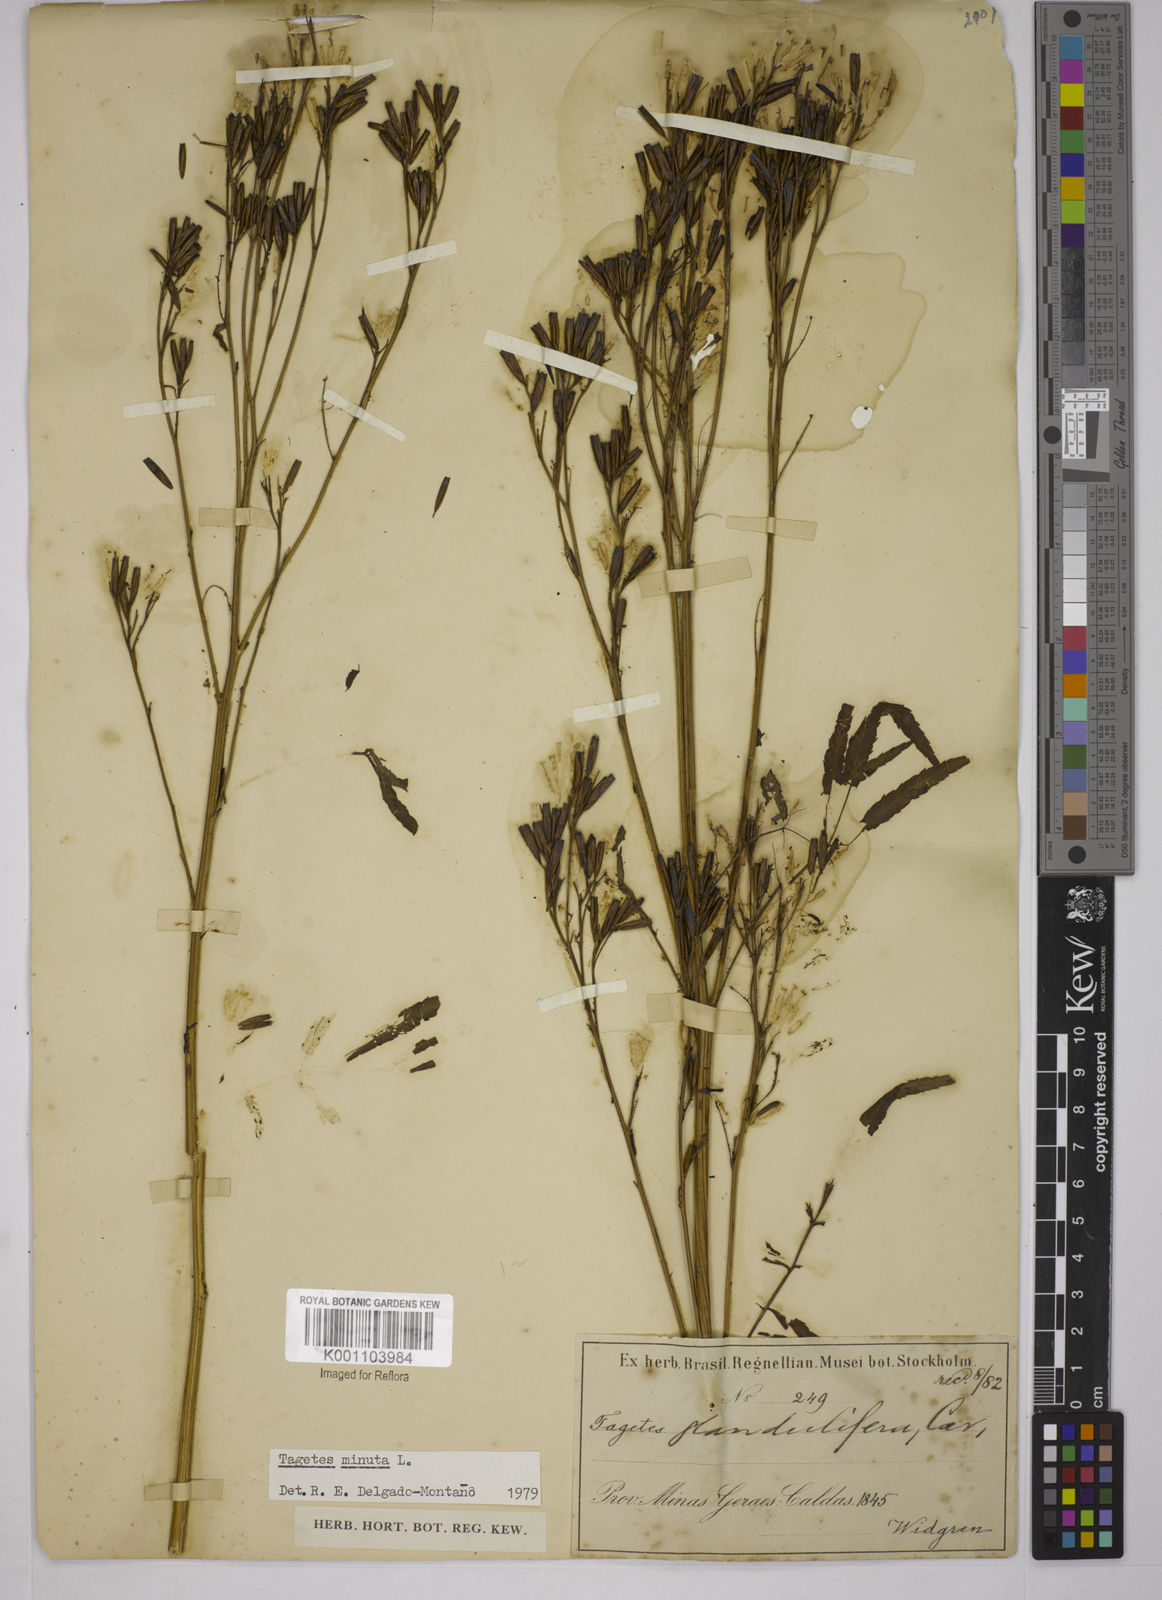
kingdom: Plantae
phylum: Tracheophyta
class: Magnoliopsida
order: Asterales
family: Asteraceae
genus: Tagetes
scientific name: Tagetes minuta
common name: Muster john henry
